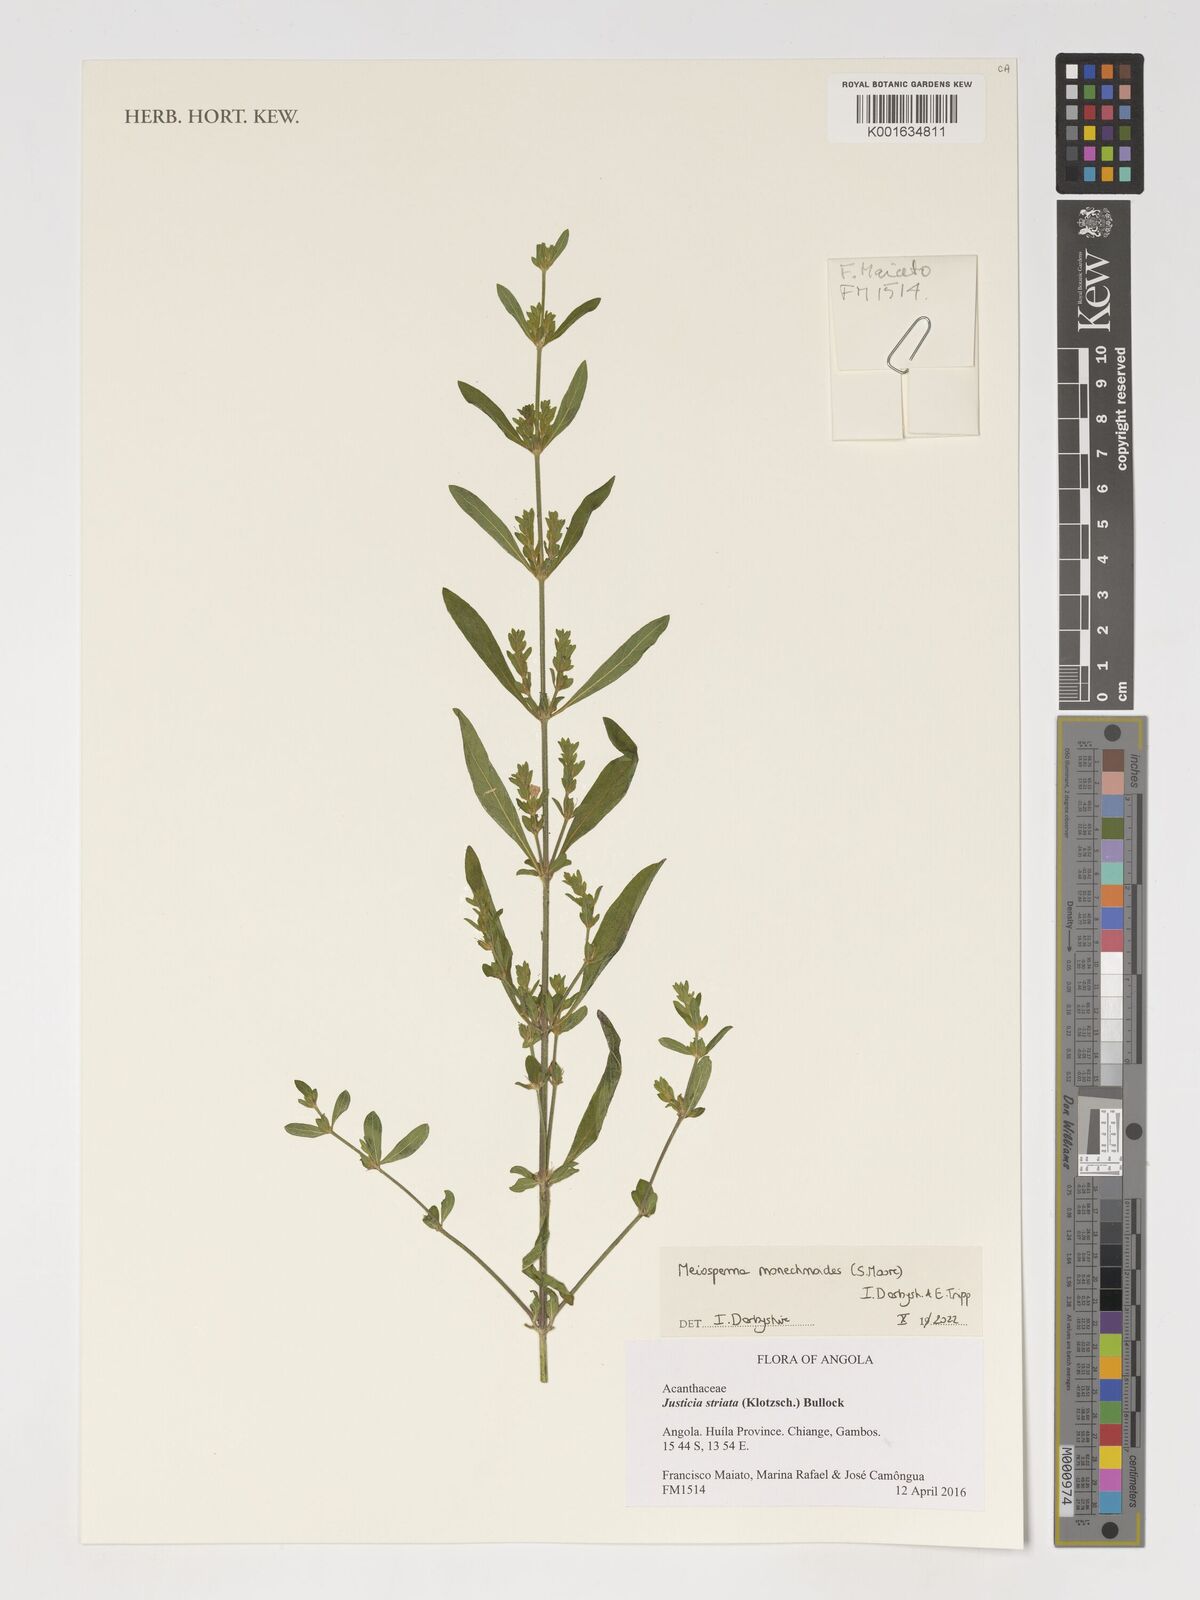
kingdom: Plantae
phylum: Tracheophyta
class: Magnoliopsida
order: Lamiales
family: Acanthaceae
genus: Monechma
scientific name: Monechma
